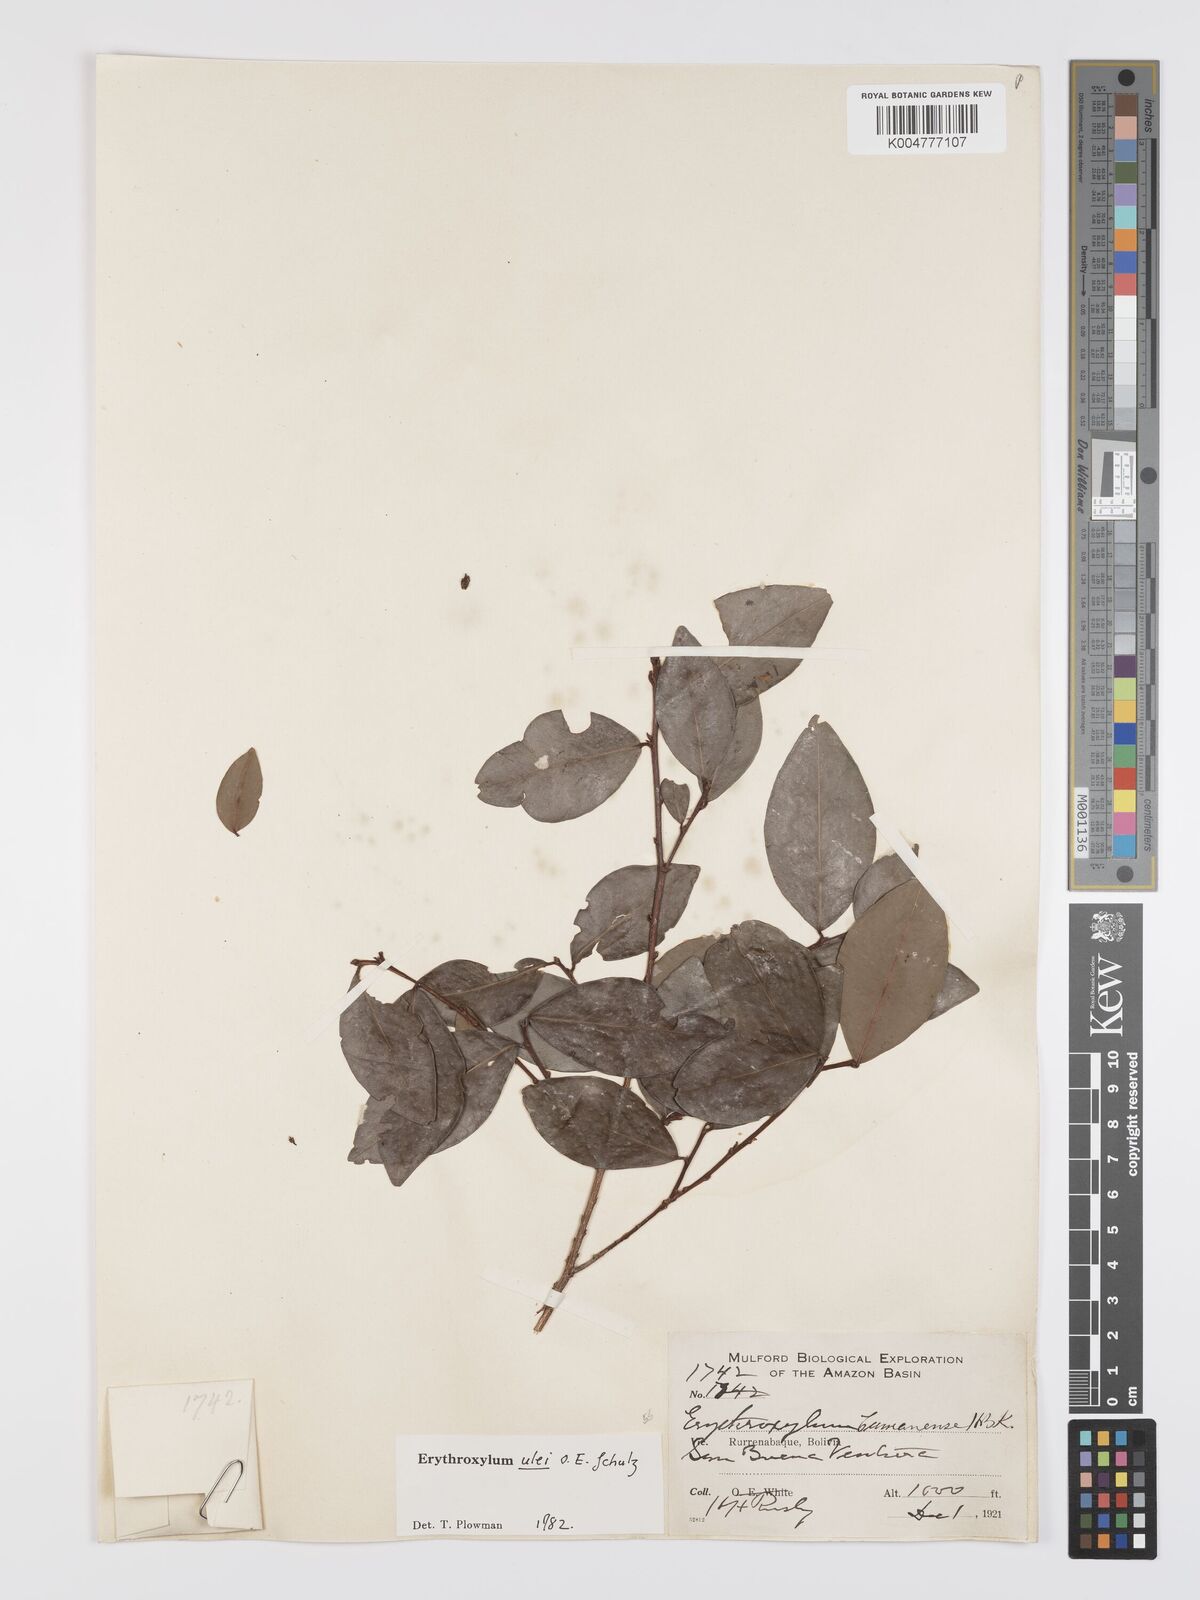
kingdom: Plantae
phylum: Tracheophyta
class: Magnoliopsida
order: Malpighiales
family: Erythroxylaceae
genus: Erythroxylum
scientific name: Erythroxylum ulei
